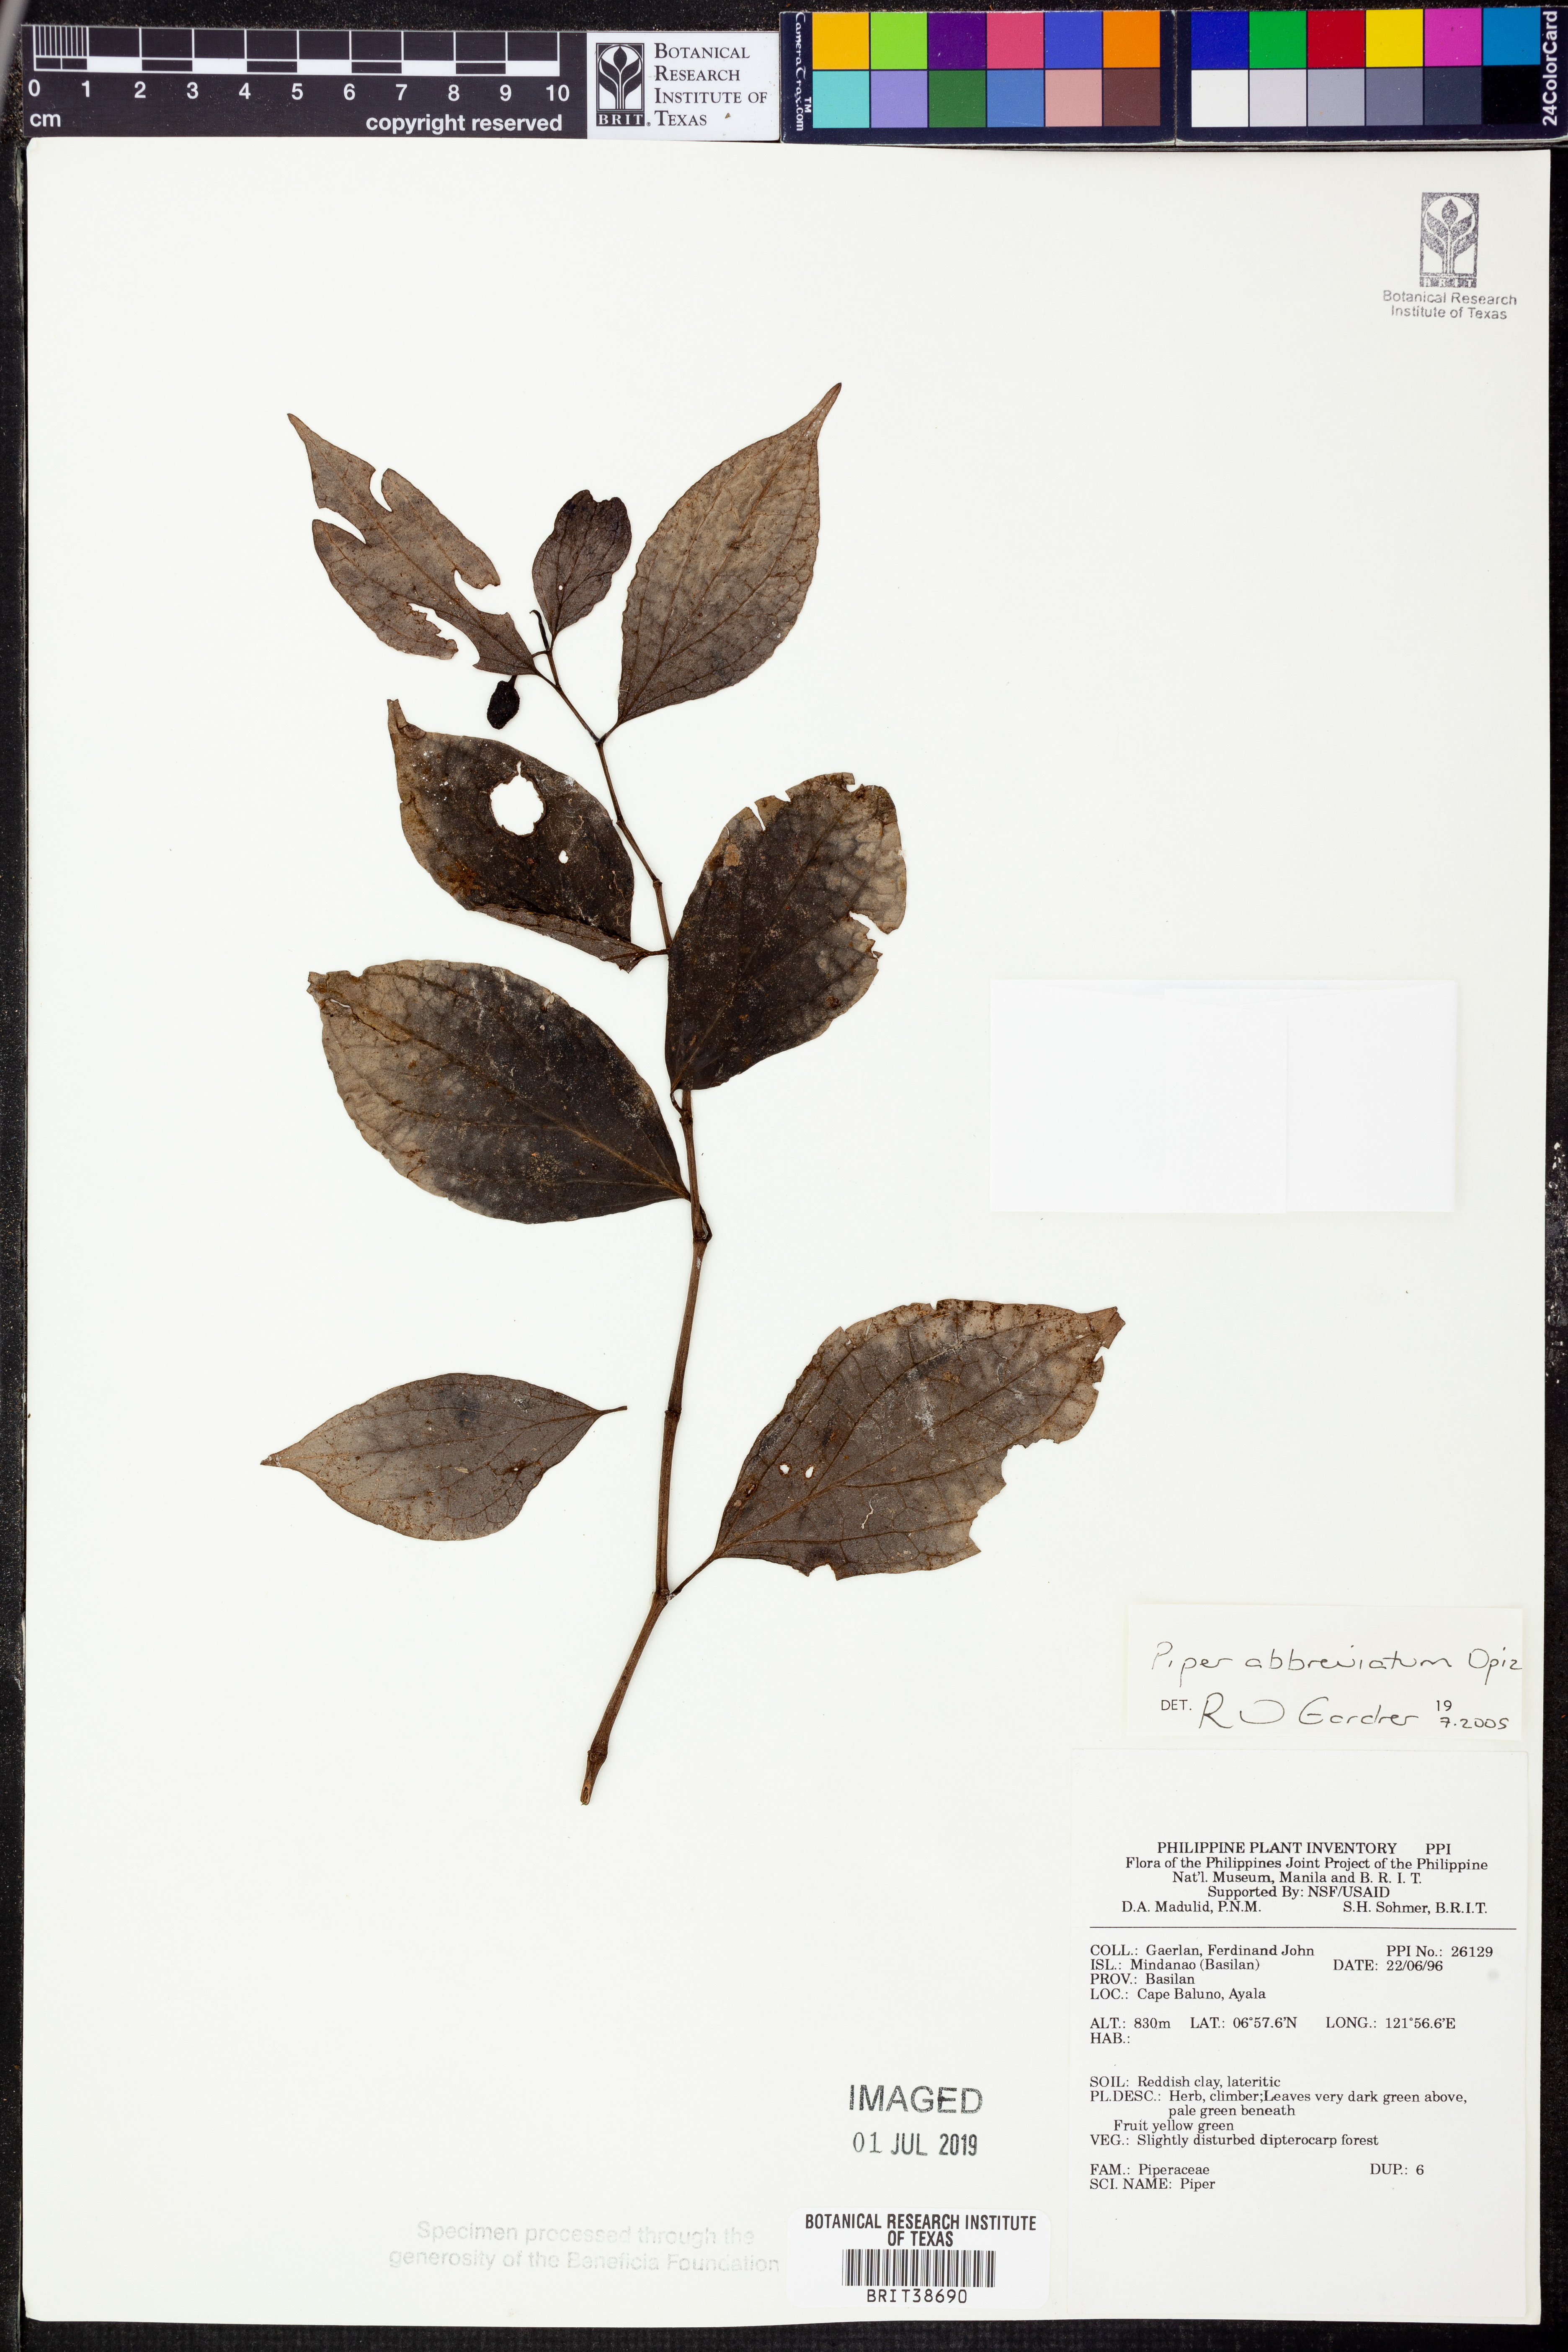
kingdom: Plantae
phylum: Tracheophyta
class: Magnoliopsida
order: Piperales
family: Piperaceae
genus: Piper
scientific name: Piper abbreviatum
